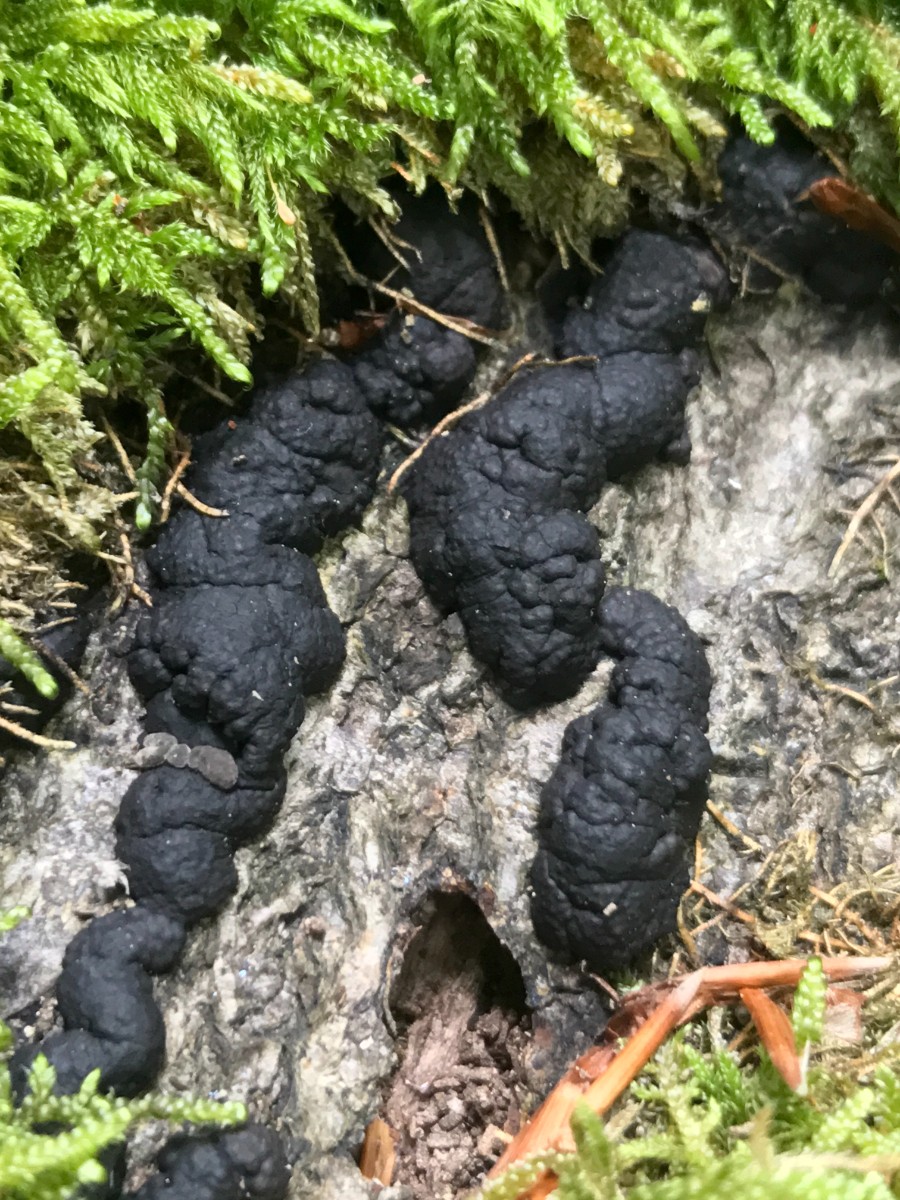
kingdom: Fungi
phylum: Ascomycota
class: Sordariomycetes
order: Xylariales
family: Hypoxylaceae
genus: Jackrogersella
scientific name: Jackrogersella multiformis
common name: foranderlig kulbær
